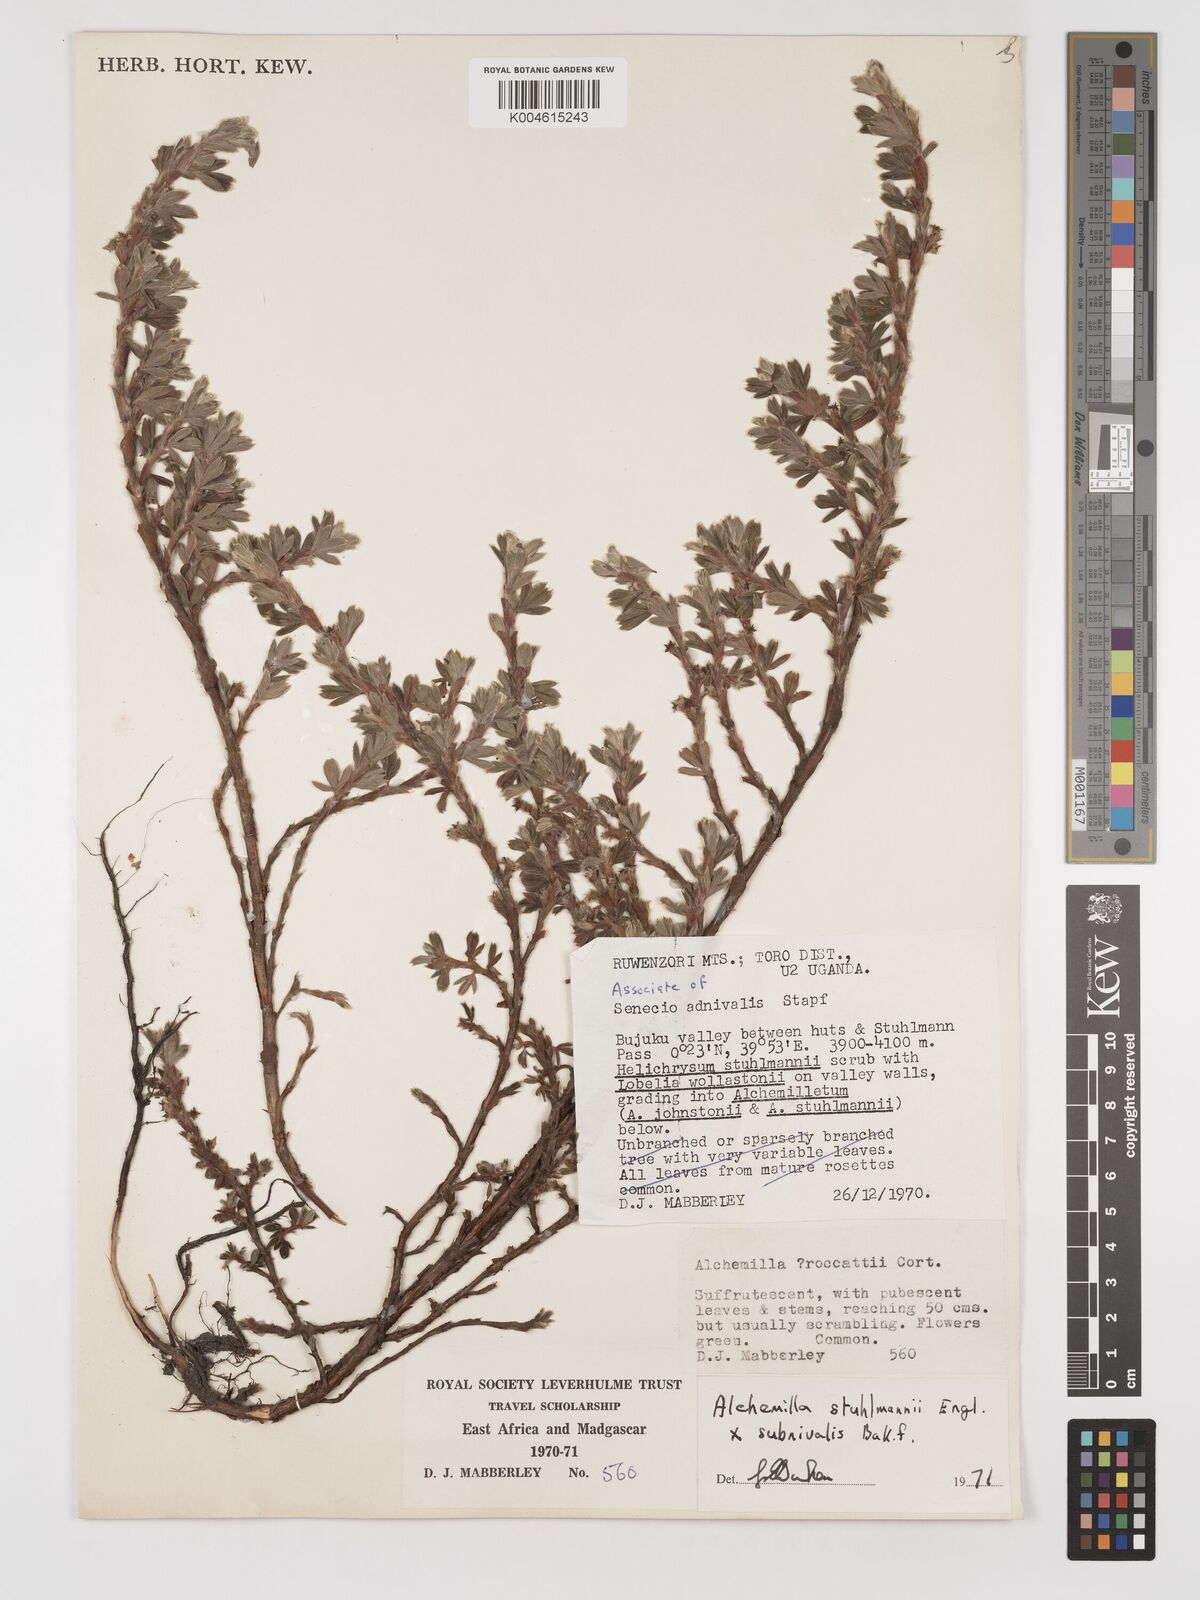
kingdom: Plantae
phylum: Tracheophyta
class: Magnoliopsida
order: Rosales
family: Rosaceae
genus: Alchemilla
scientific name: Alchemilla stuhlmannii
